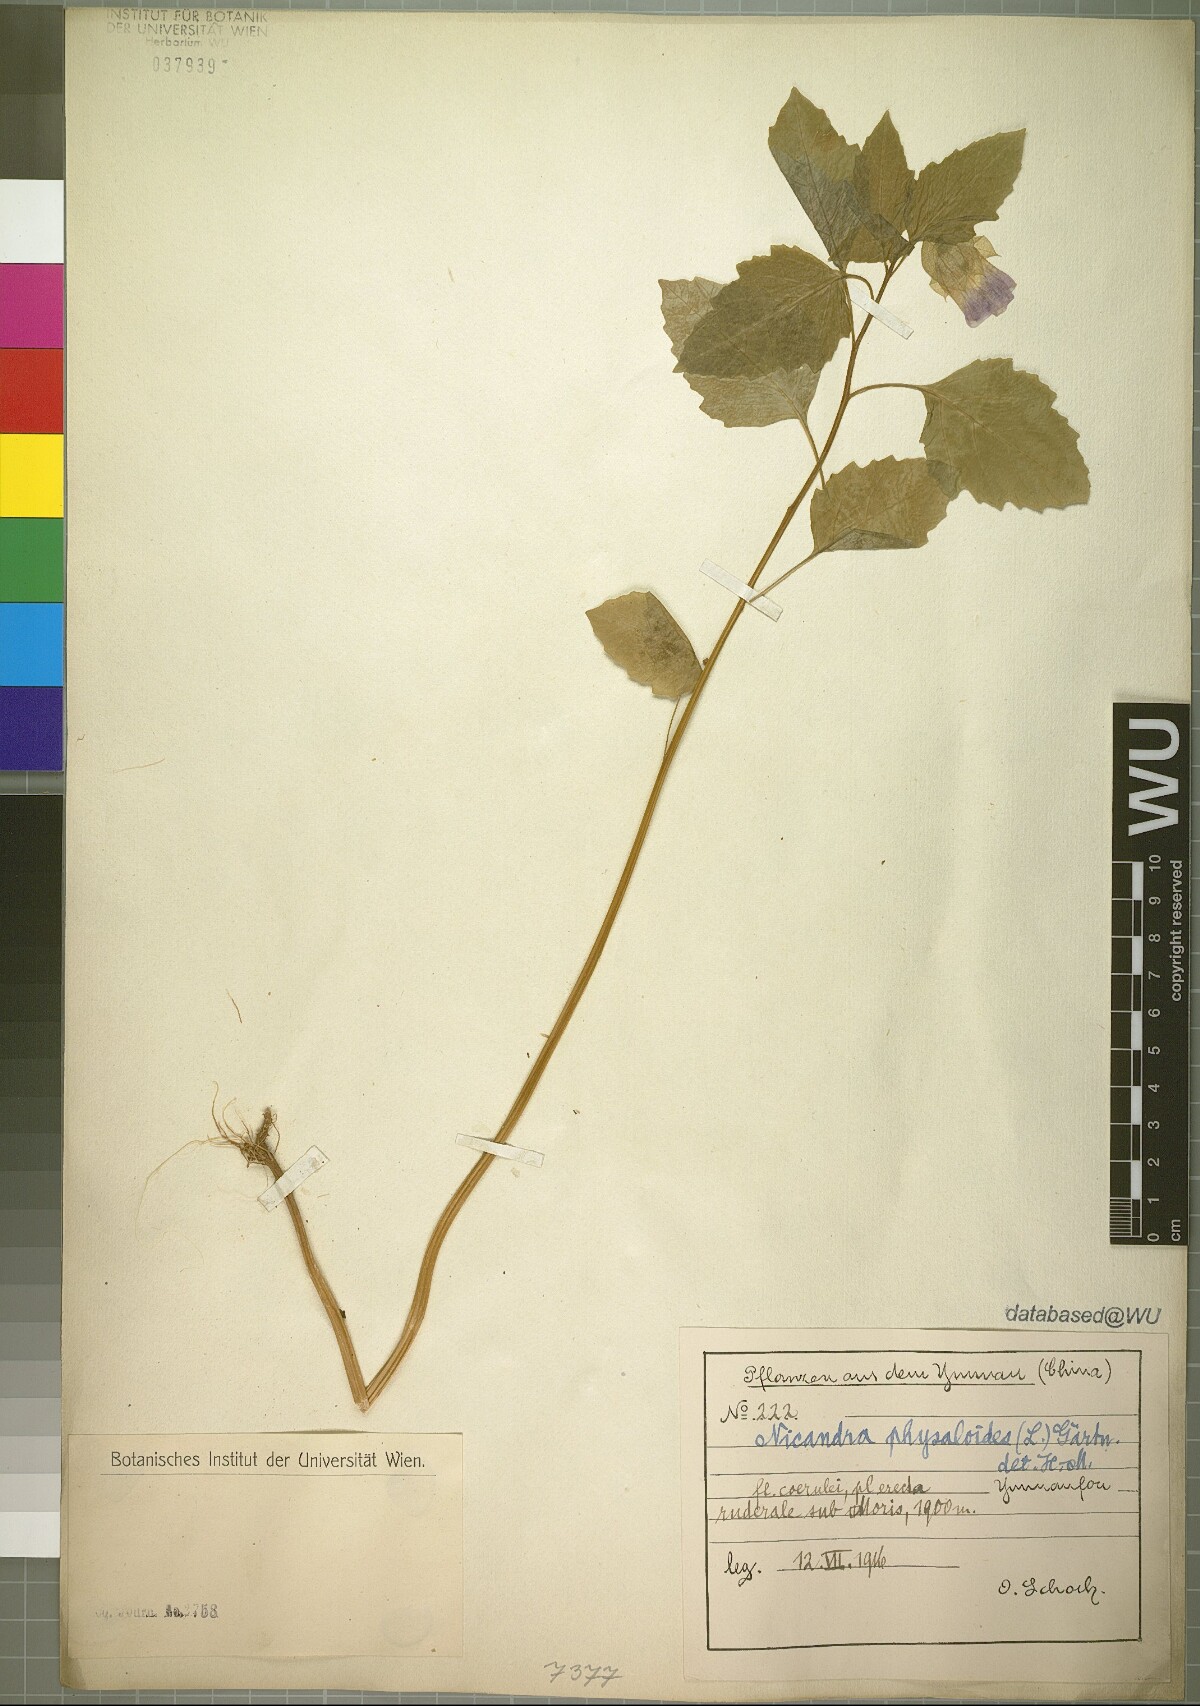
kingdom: Plantae
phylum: Tracheophyta
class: Magnoliopsida
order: Solanales
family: Solanaceae
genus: Nicandra
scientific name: Nicandra physalodes
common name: Apple-of-peru
